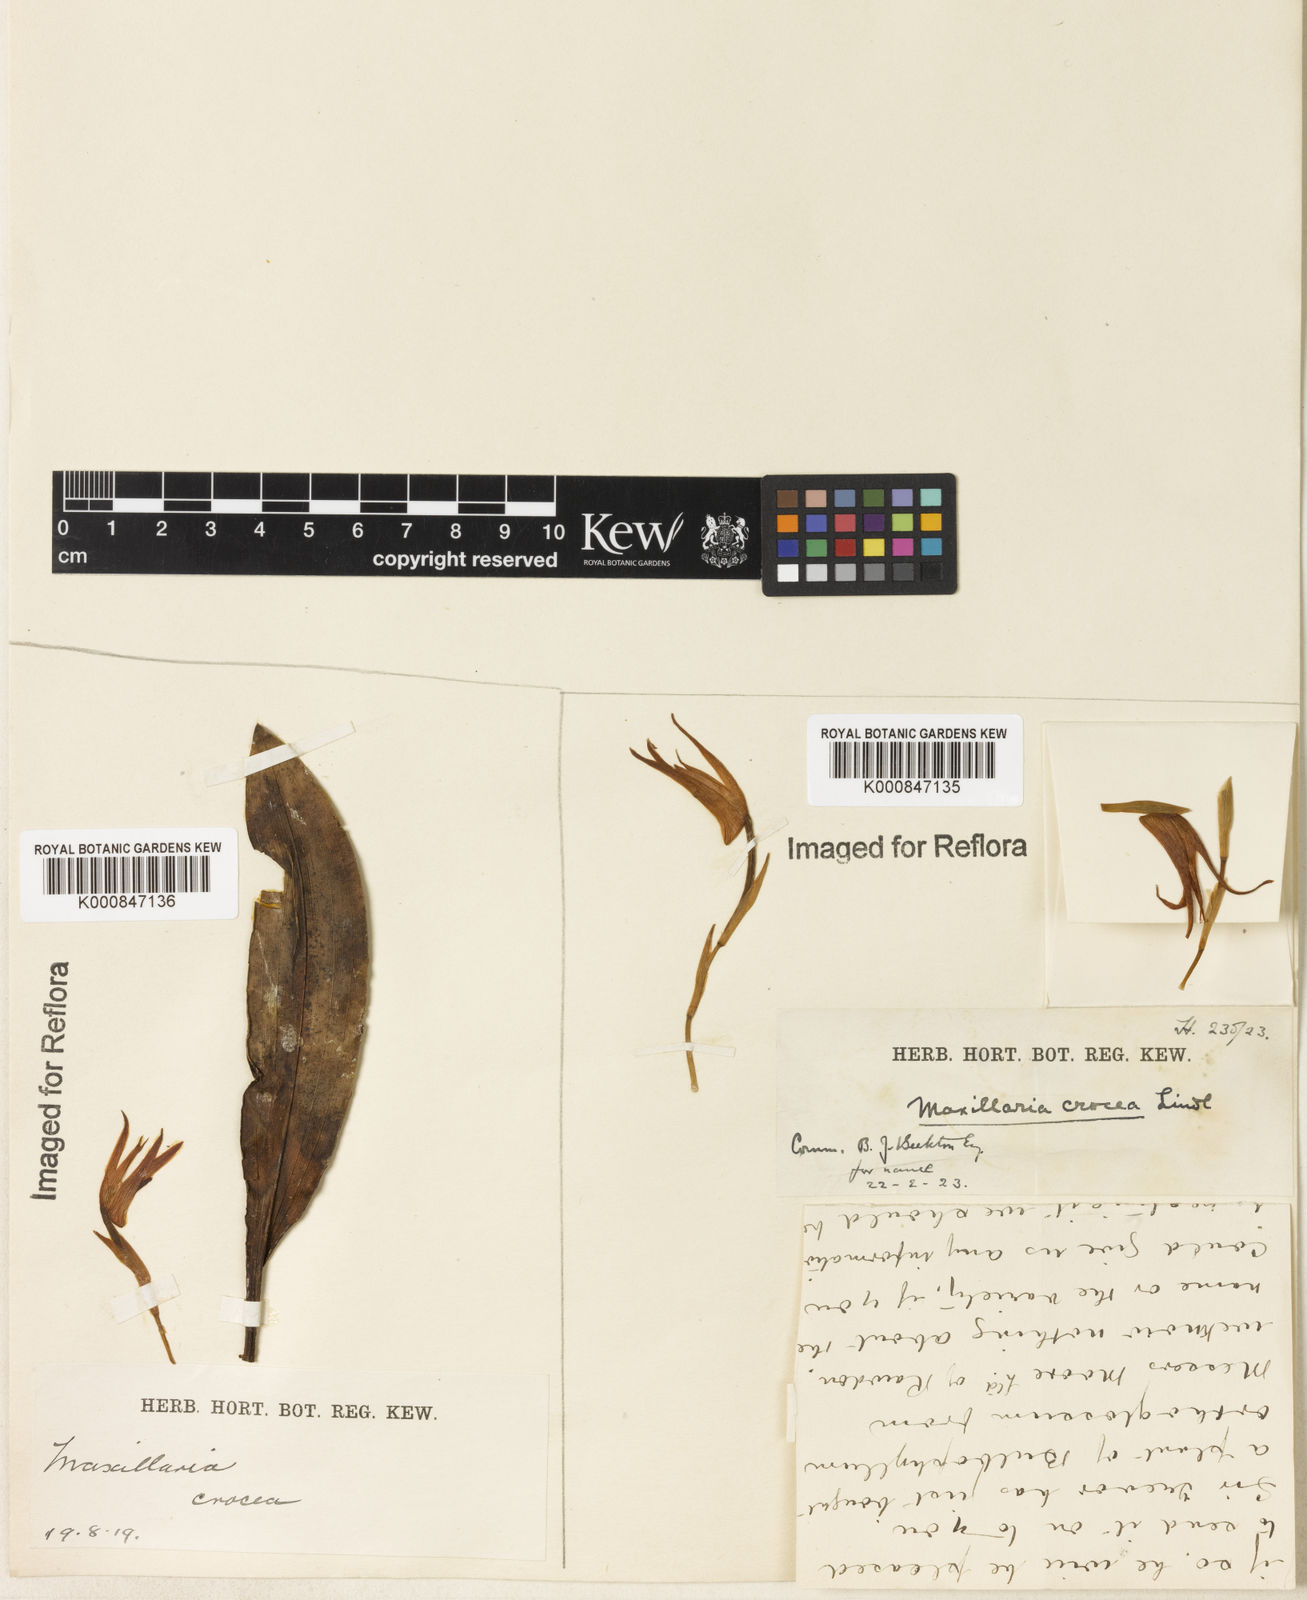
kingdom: Plantae
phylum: Tracheophyta
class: Liliopsida
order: Asparagales
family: Orchidaceae
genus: Maxillaria
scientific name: Maxillaria crocea
